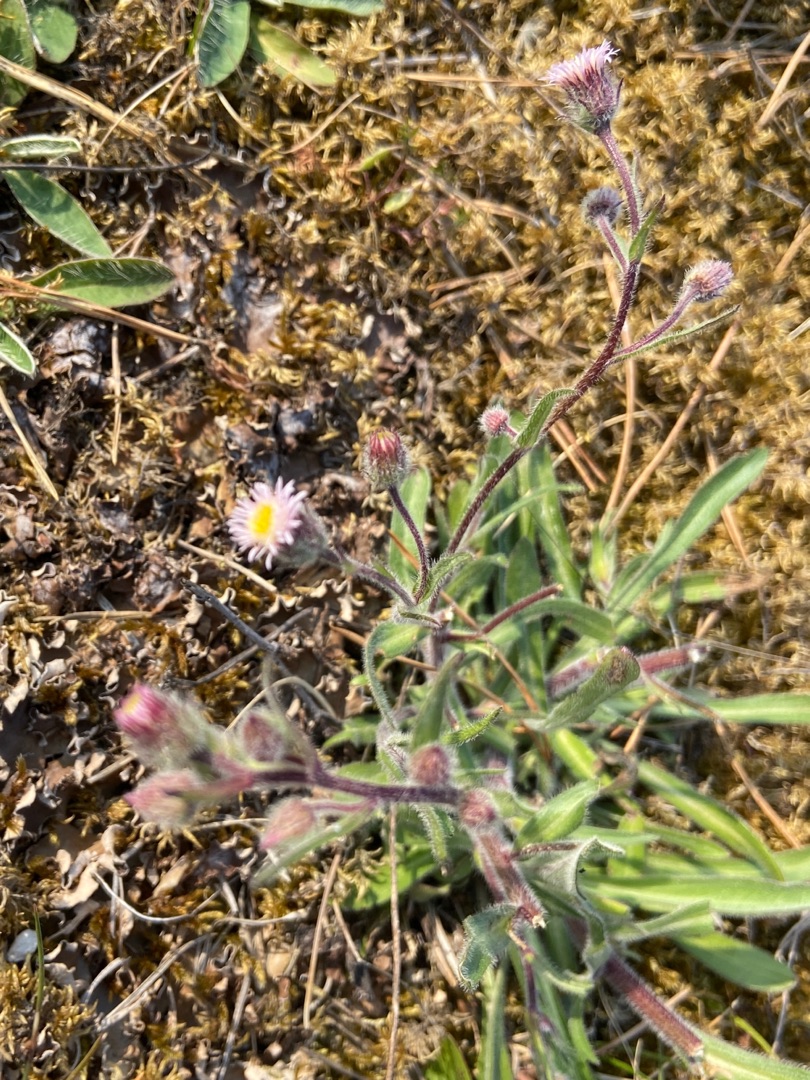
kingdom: Plantae
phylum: Tracheophyta
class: Magnoliopsida
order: Asterales
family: Asteraceae
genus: Erigeron
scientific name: Erigeron acris
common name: Bitter bakkestjerne
